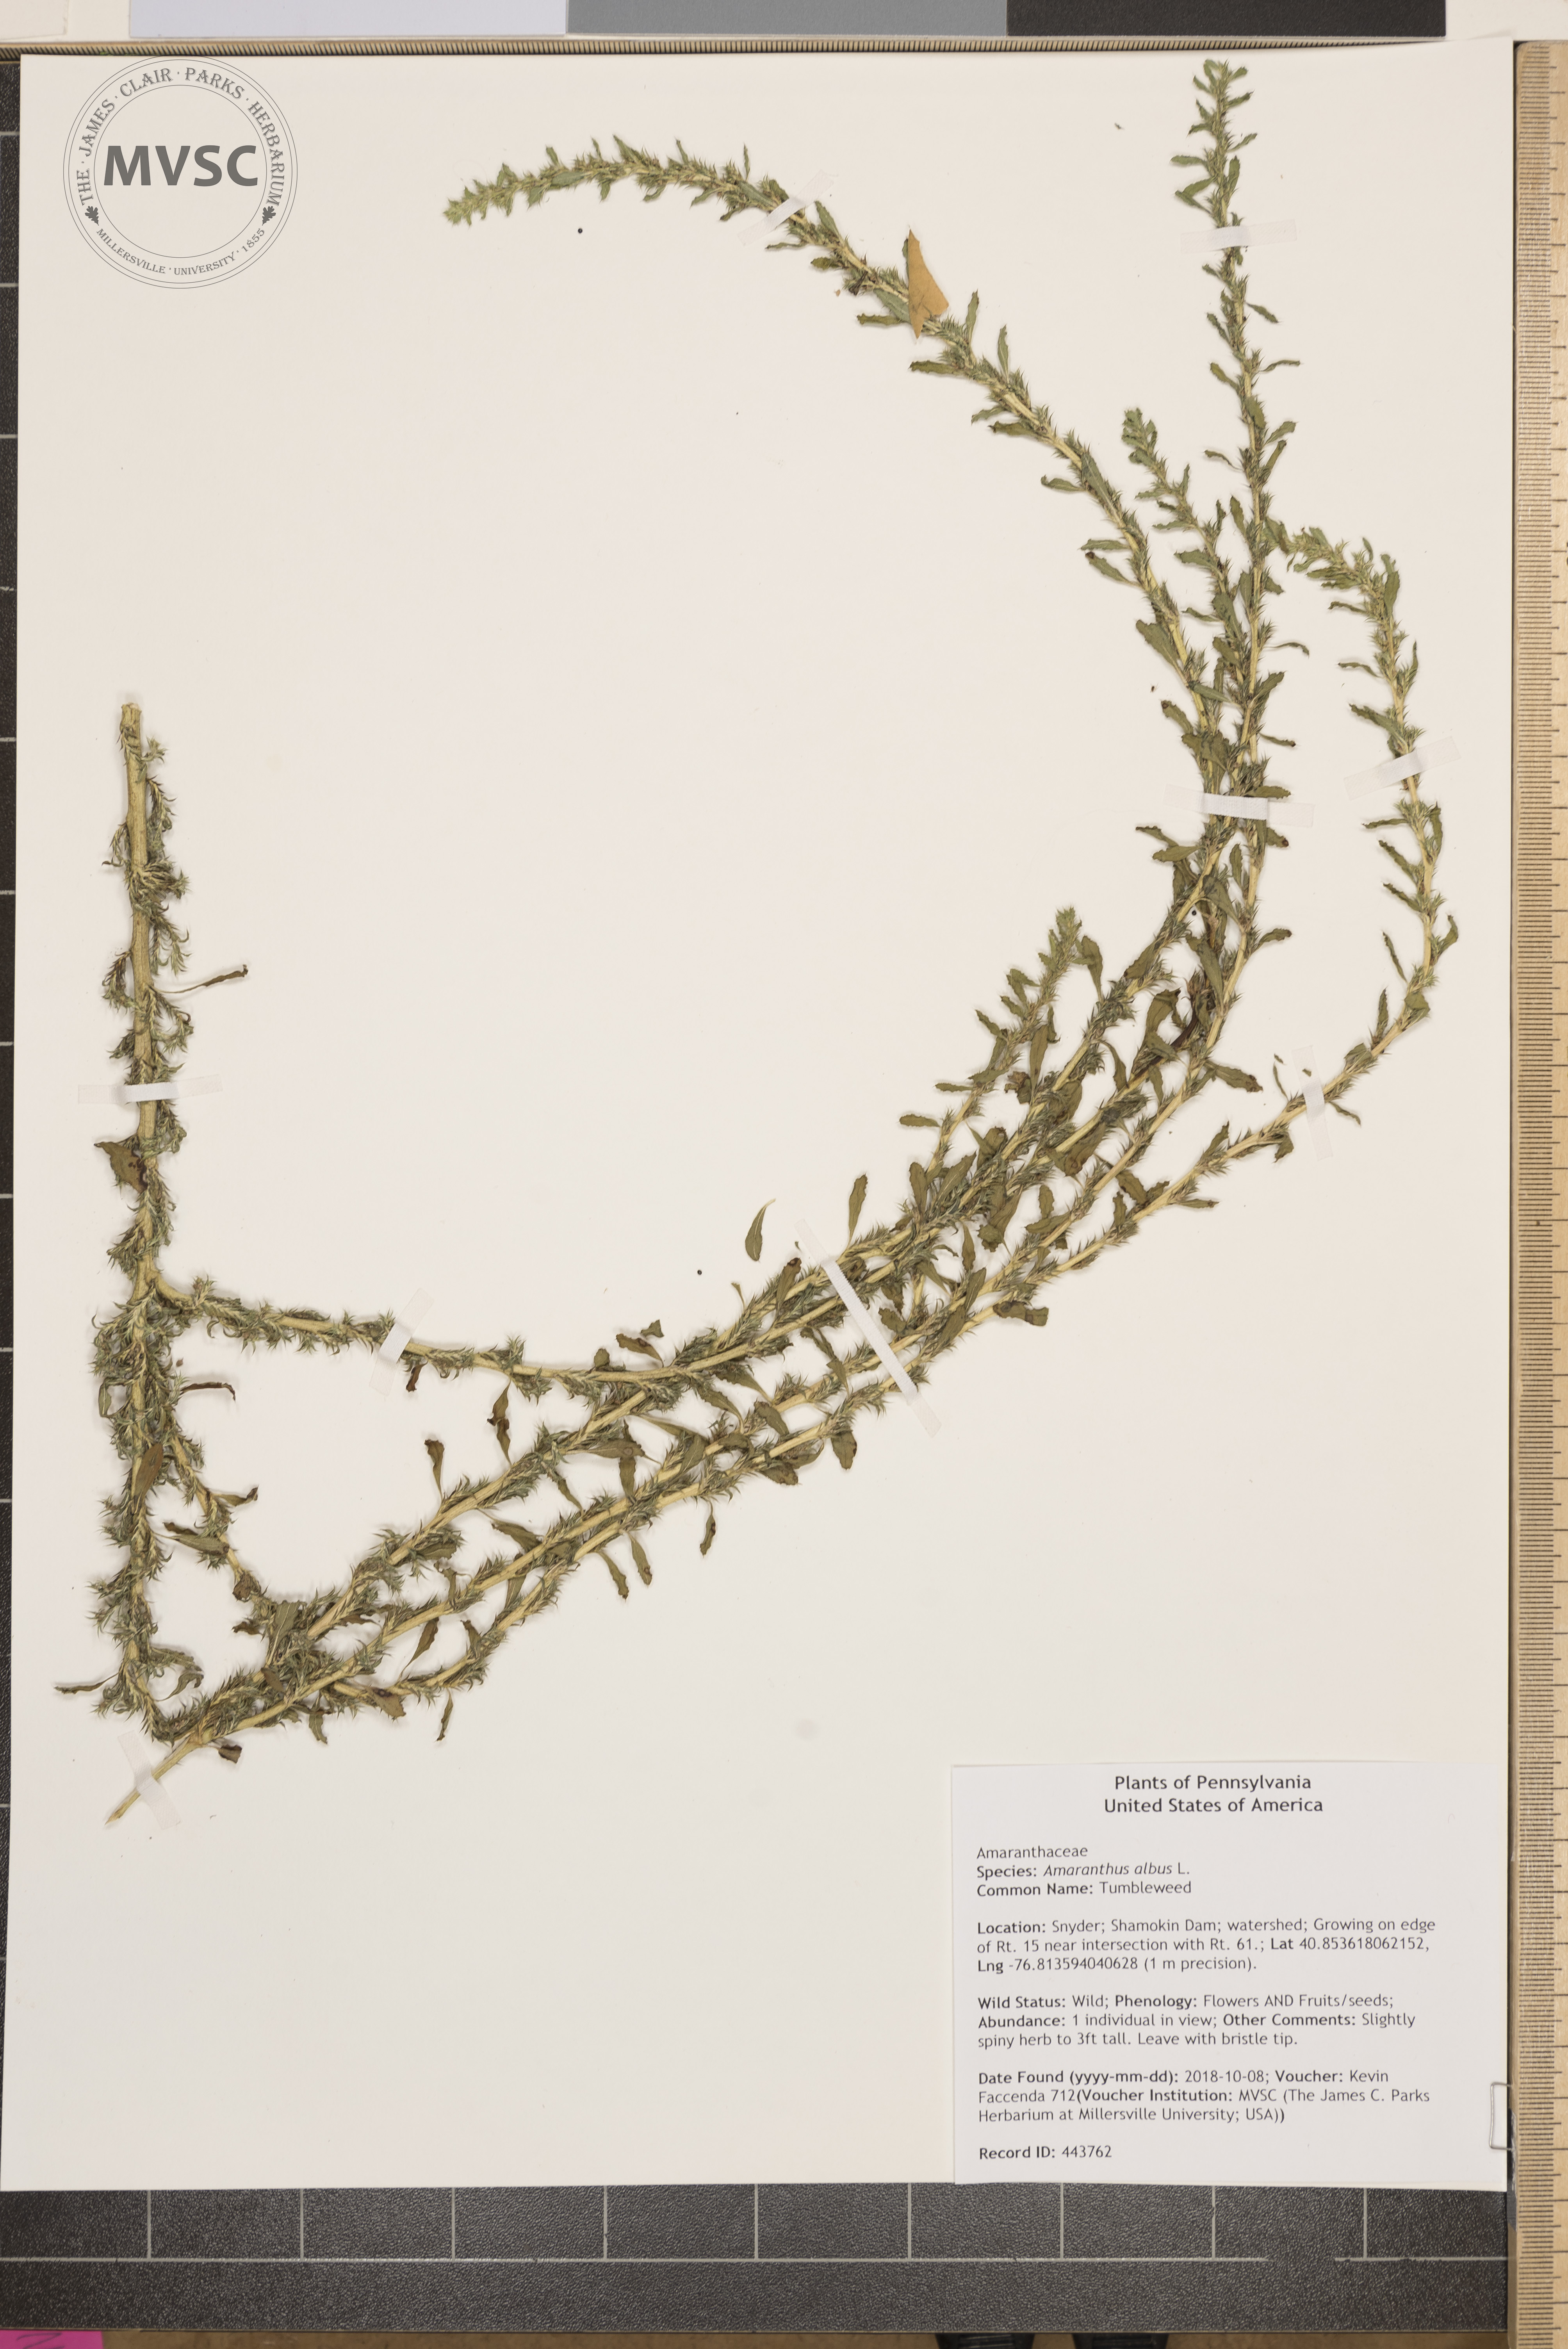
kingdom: Plantae
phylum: Tracheophyta
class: Magnoliopsida
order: Caryophyllales
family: Amaranthaceae
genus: Amaranthus
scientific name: Amaranthus albus
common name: Tumbleweed
